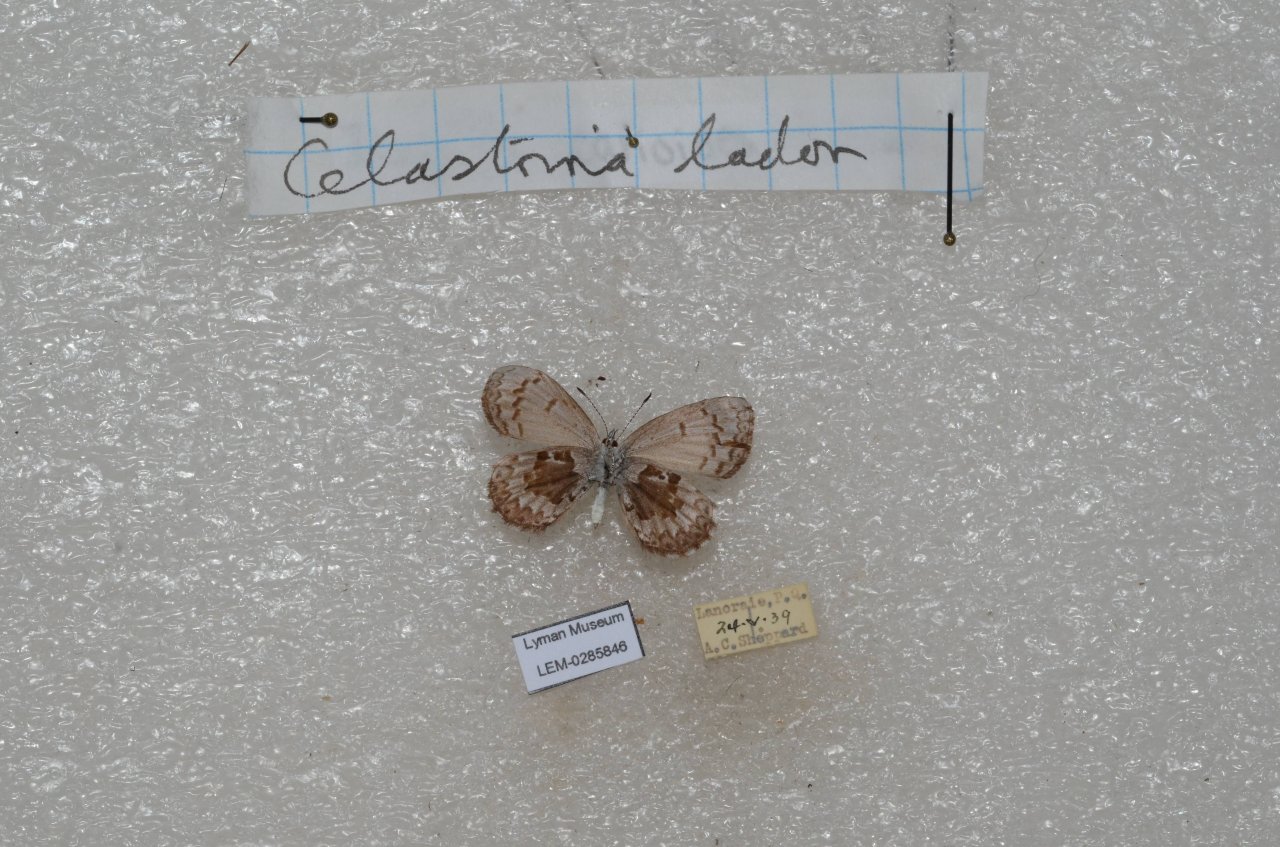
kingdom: Animalia
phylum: Arthropoda
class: Insecta
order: Lepidoptera
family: Lycaenidae
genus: Celastrina
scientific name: Celastrina lucia
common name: Northern Spring Azure
